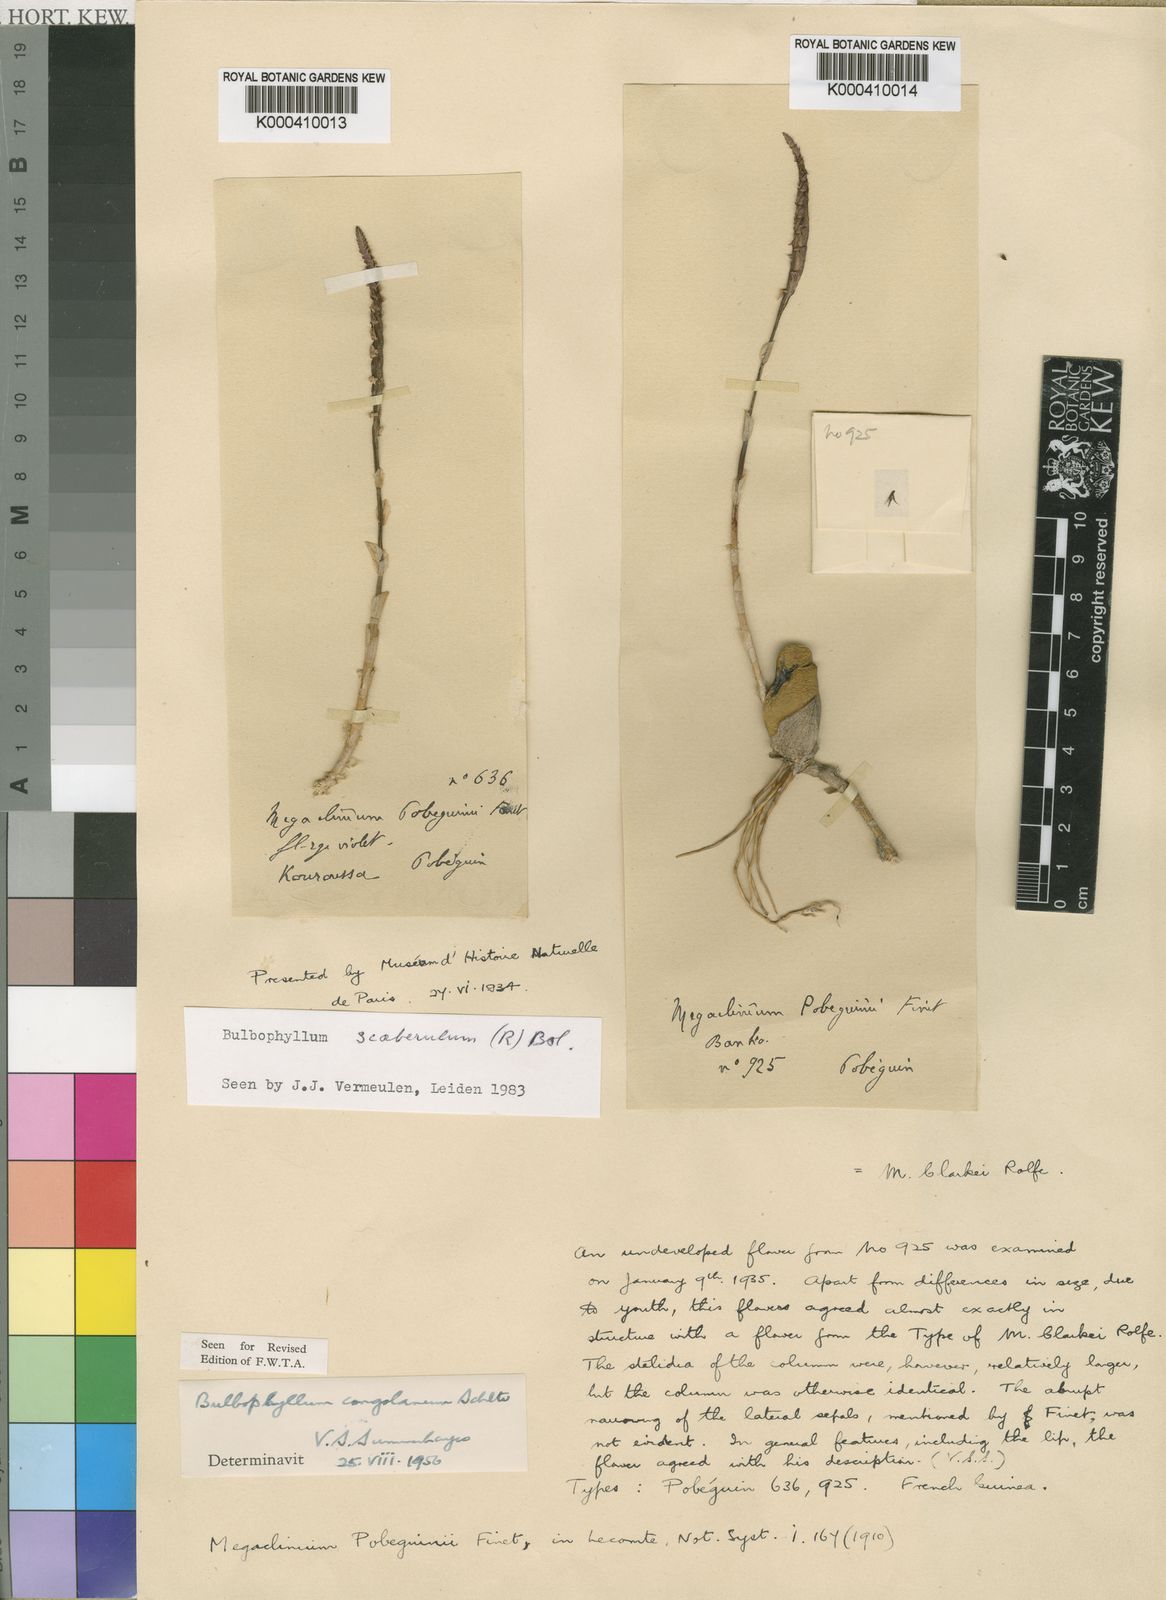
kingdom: Plantae
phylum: Tracheophyta
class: Liliopsida
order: Asparagales
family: Orchidaceae
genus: Bulbophyllum
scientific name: Bulbophyllum scaberulum
